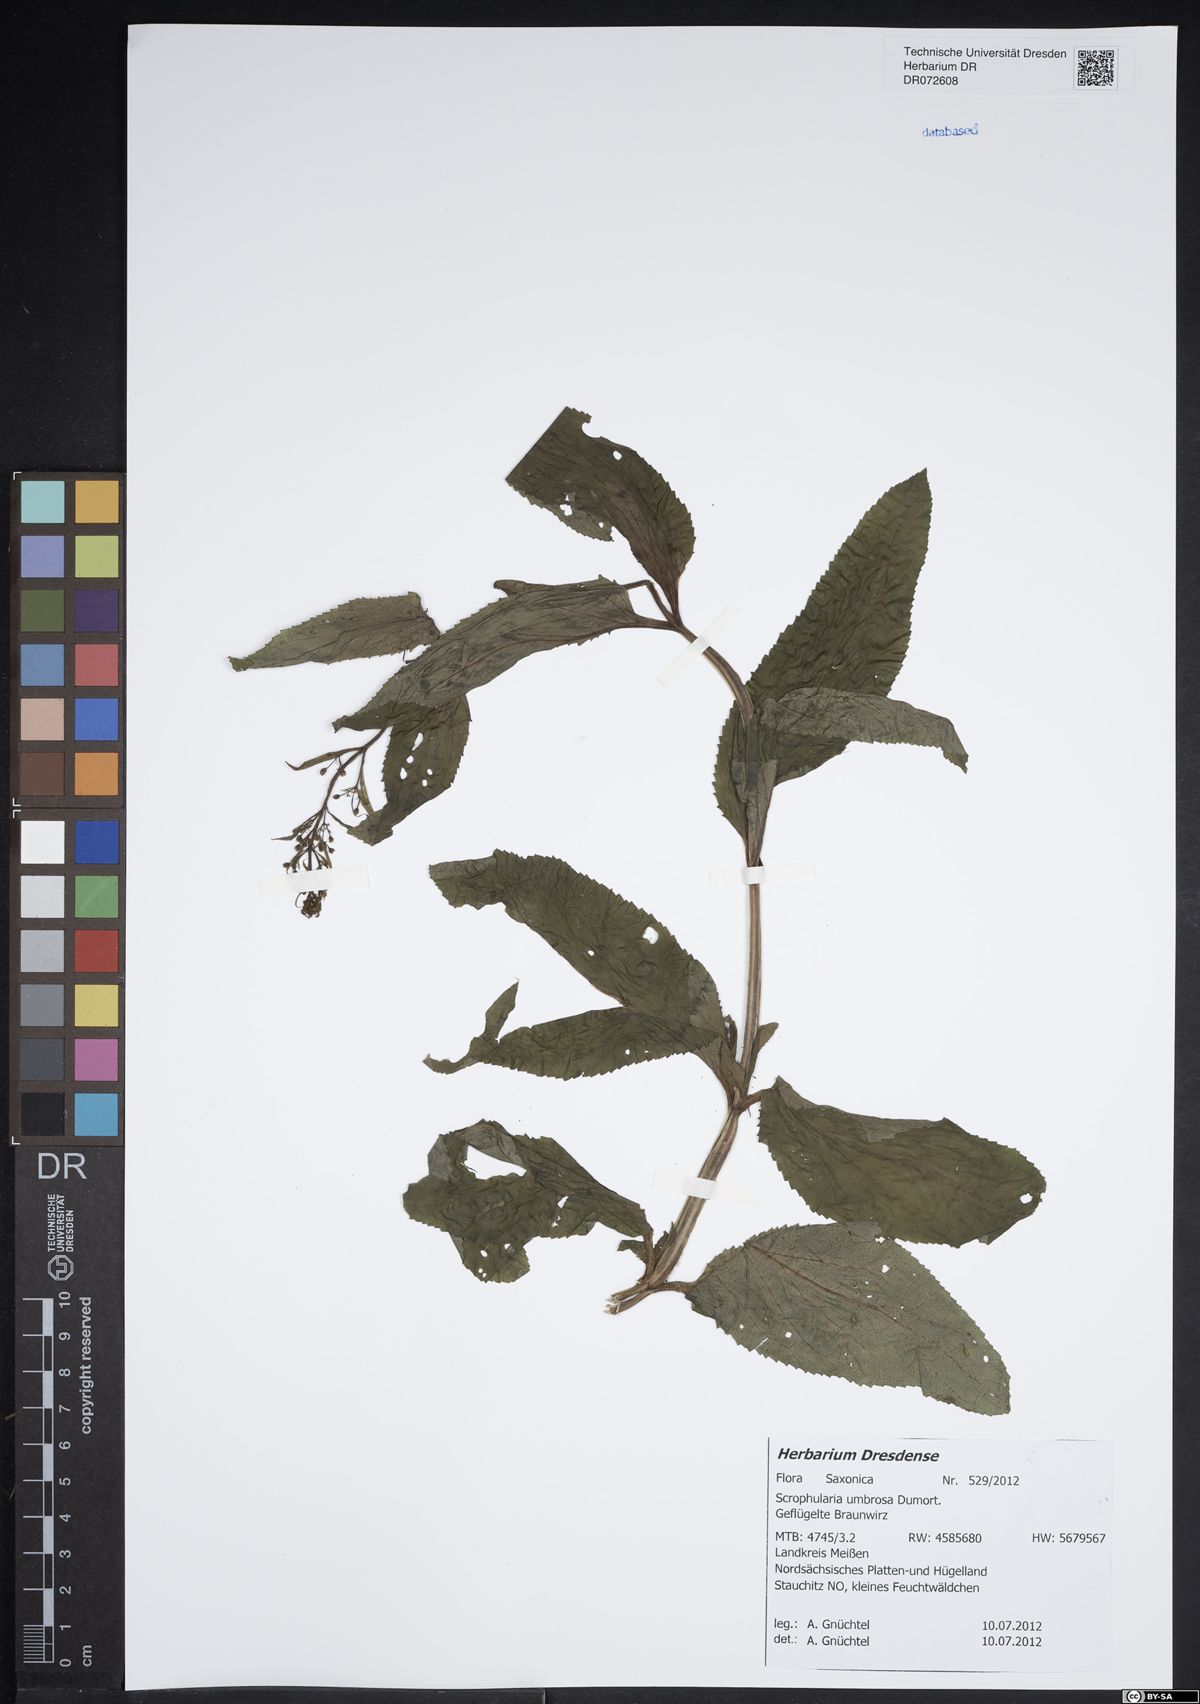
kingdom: Plantae
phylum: Tracheophyta
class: Magnoliopsida
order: Lamiales
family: Scrophulariaceae
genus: Scrophularia
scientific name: Scrophularia umbrosa
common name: Green figwort
